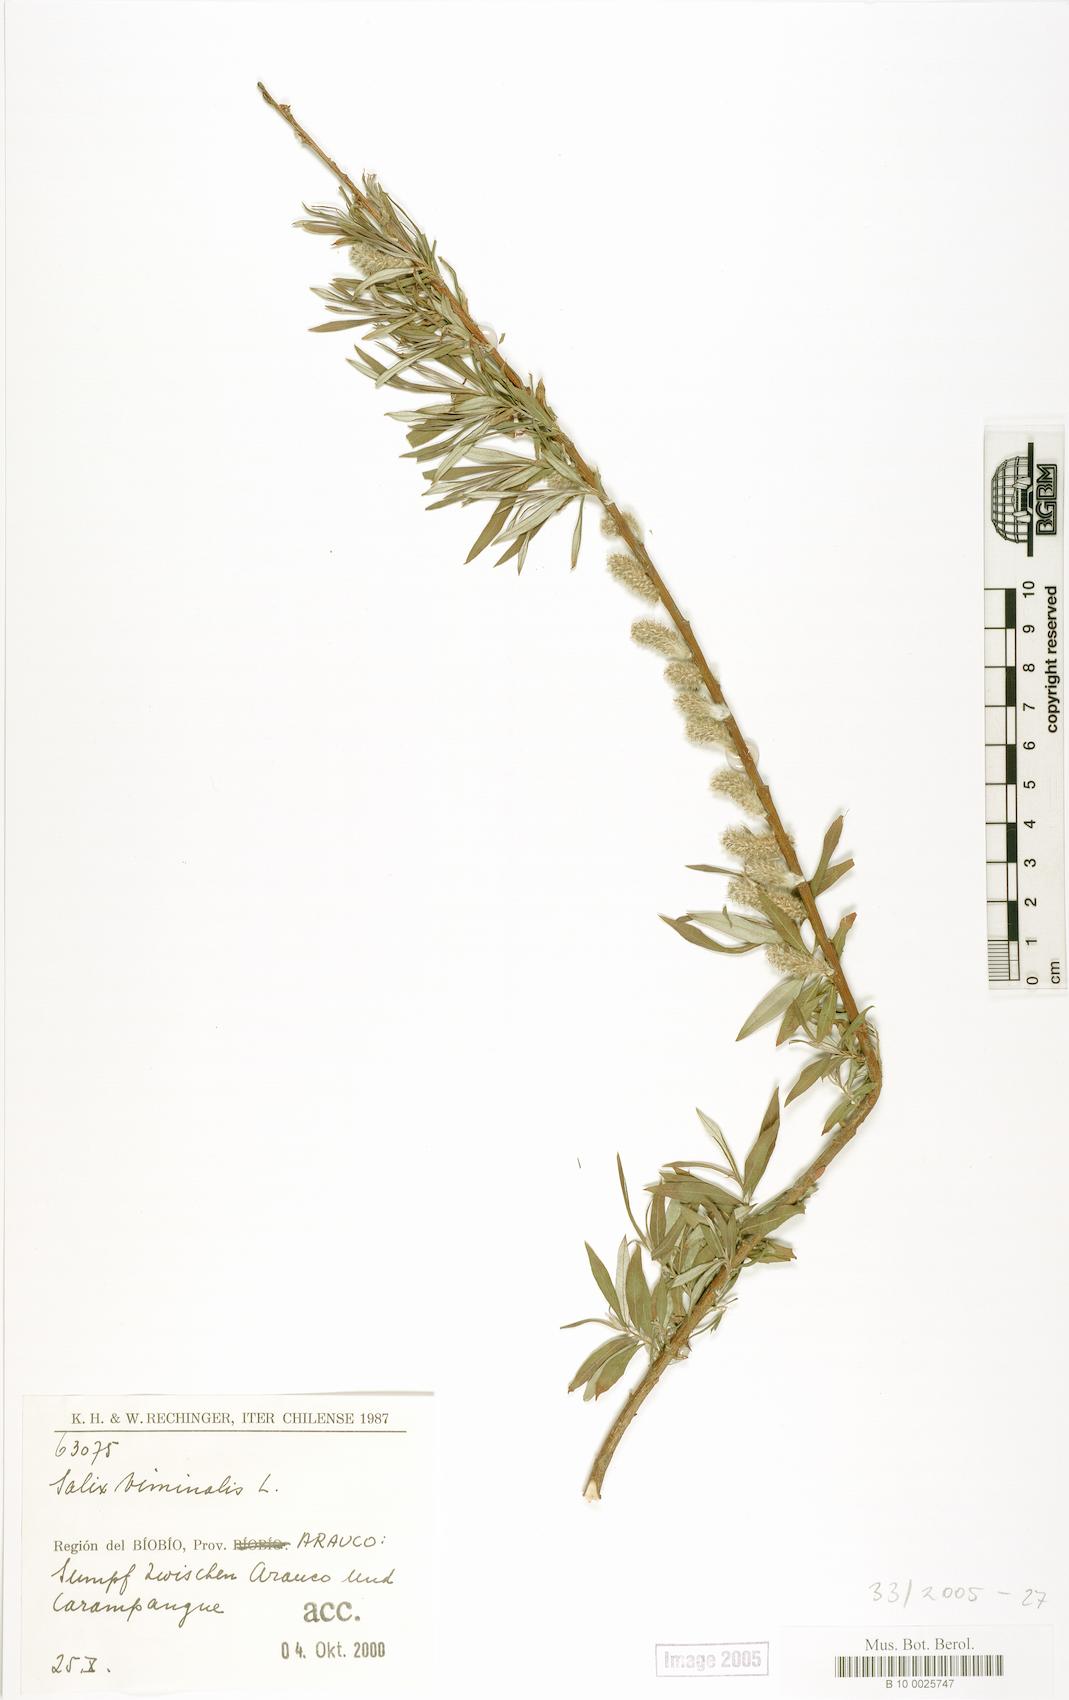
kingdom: Plantae
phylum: Tracheophyta
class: Magnoliopsida
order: Malpighiales
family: Salicaceae
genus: Salix
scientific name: Salix viminalis
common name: Osier
